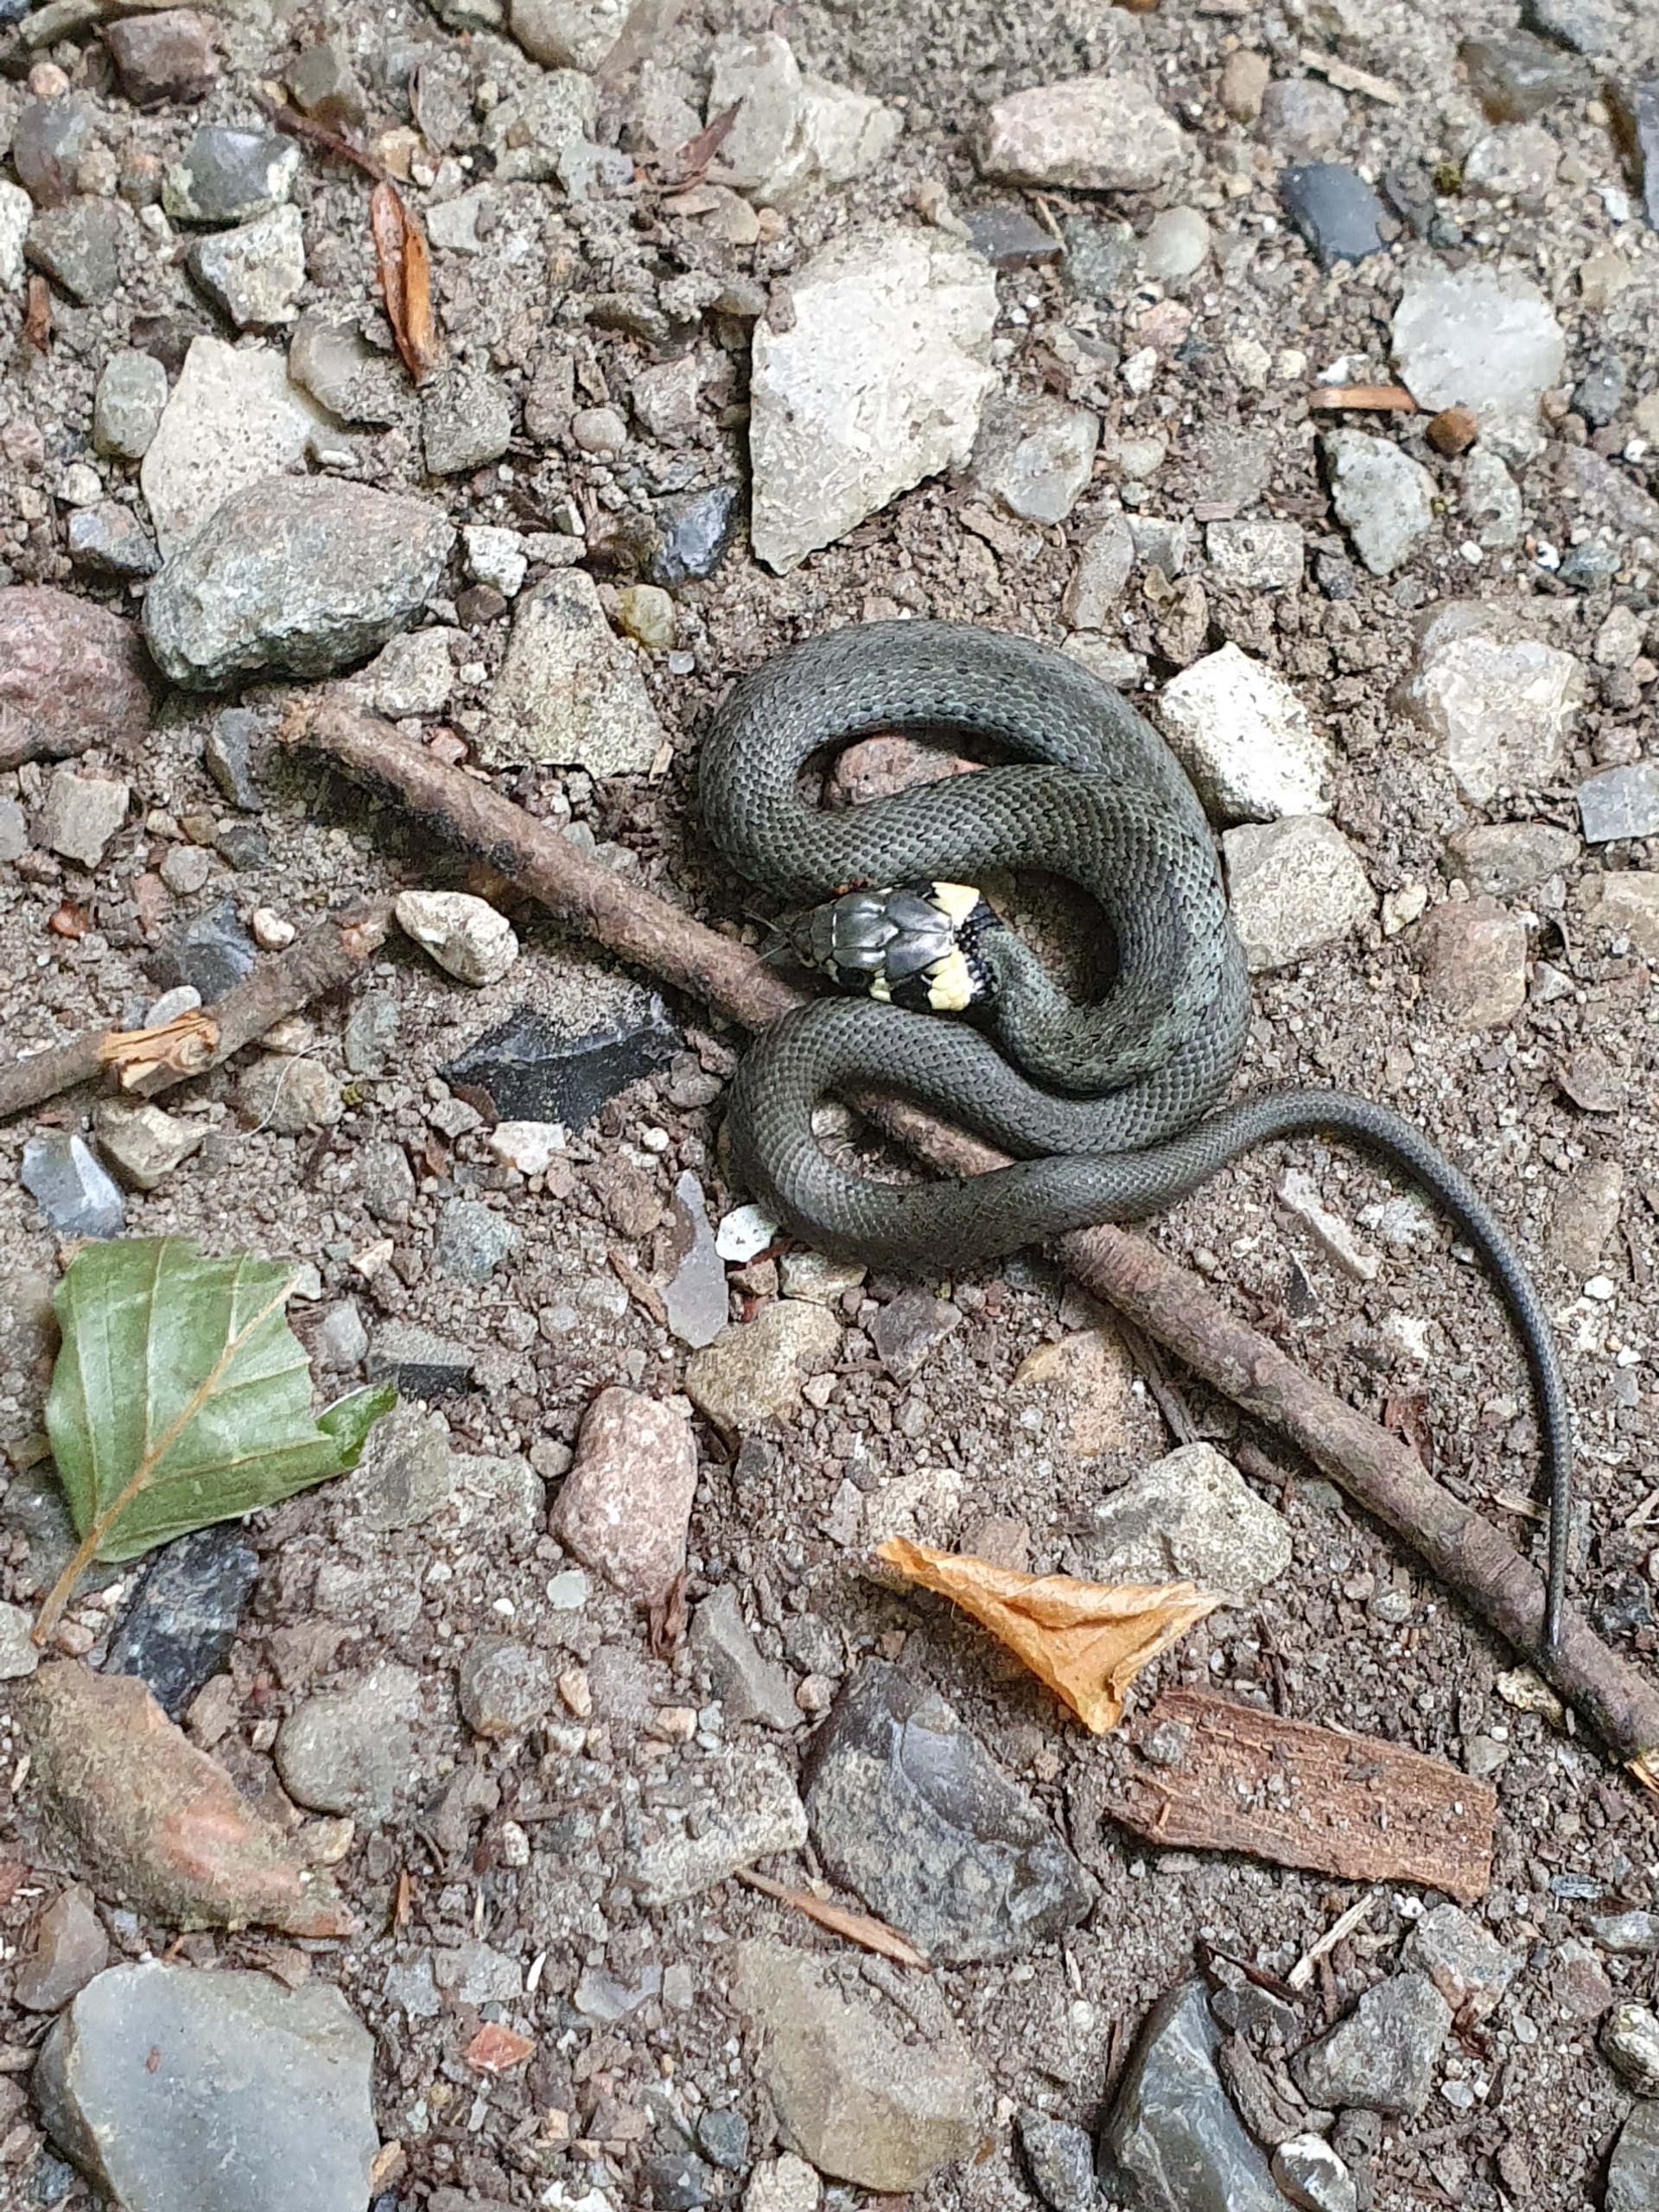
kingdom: Animalia
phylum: Chordata
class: Squamata
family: Colubridae
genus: Natrix
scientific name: Natrix natrix
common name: Snog
